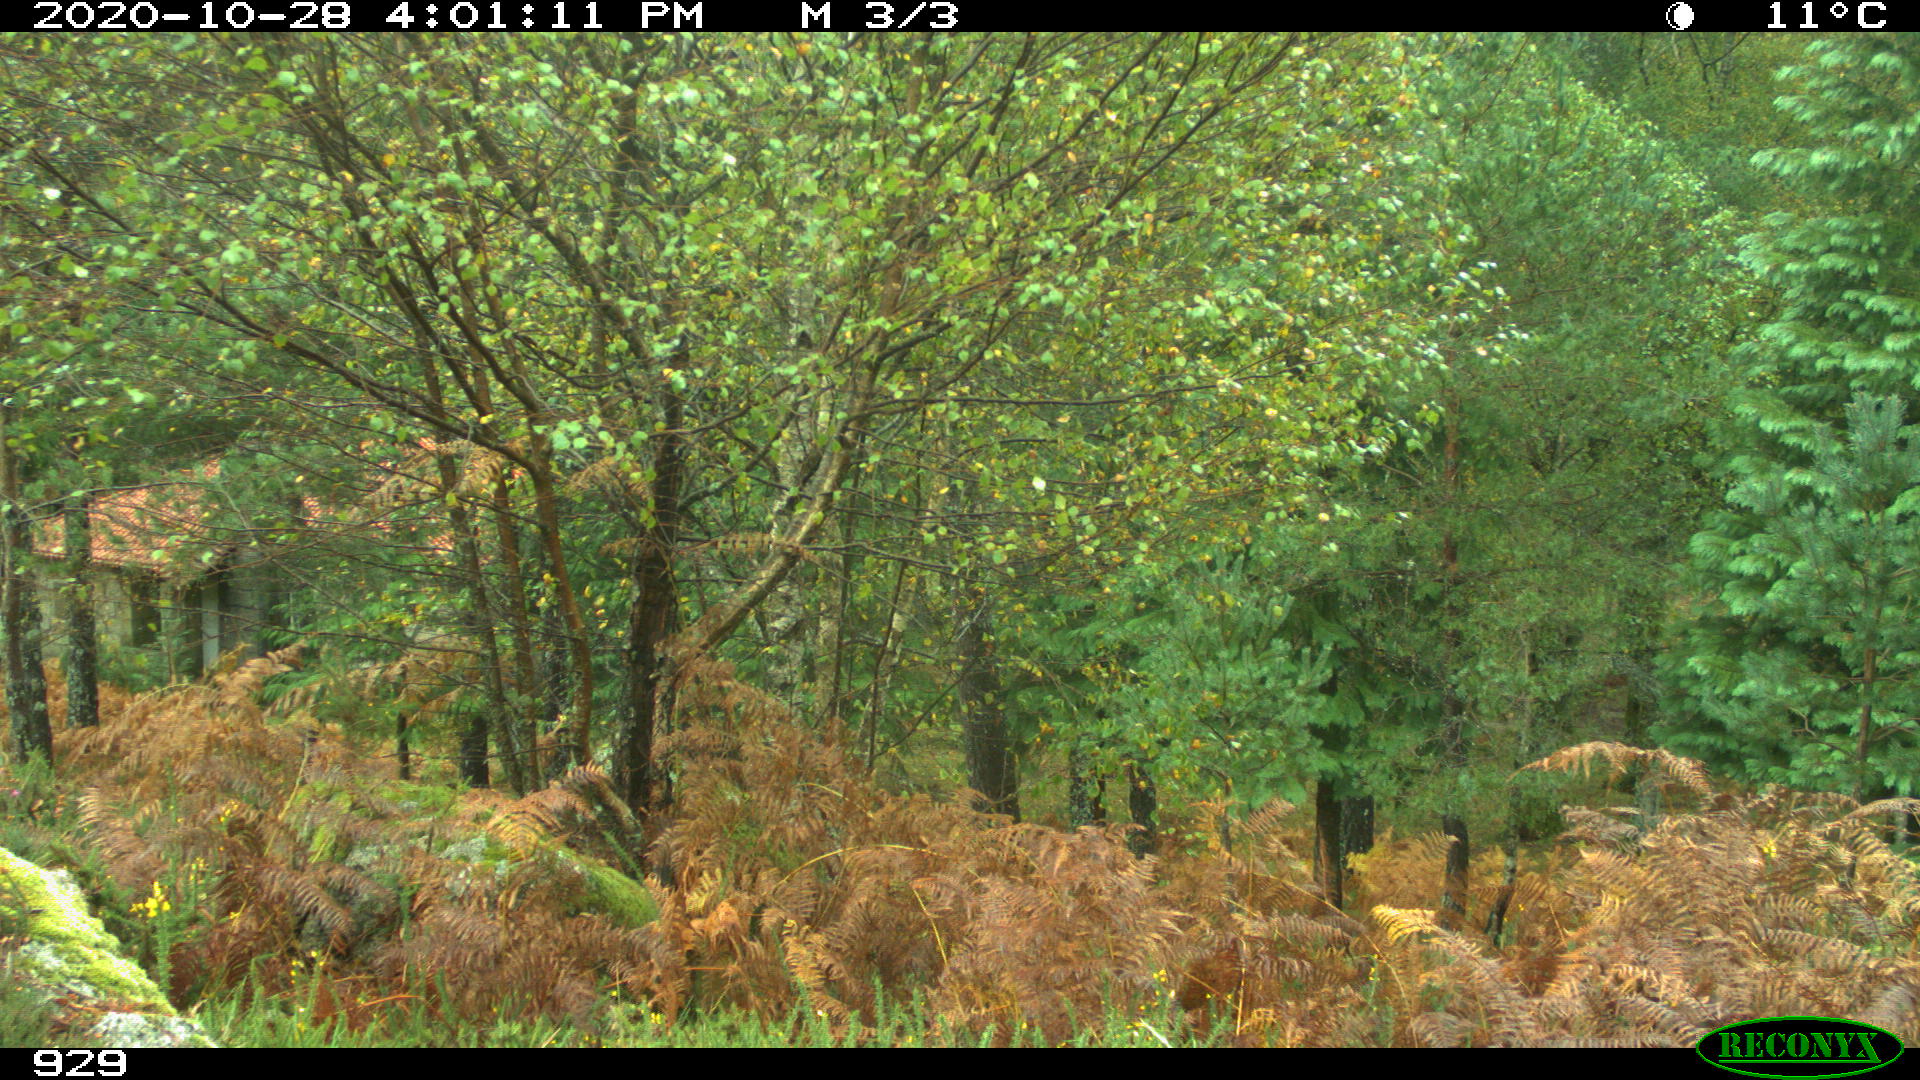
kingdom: Animalia
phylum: Chordata
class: Mammalia
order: Artiodactyla
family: Bovidae
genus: Bos
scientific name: Bos taurus
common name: Domesticated cattle
